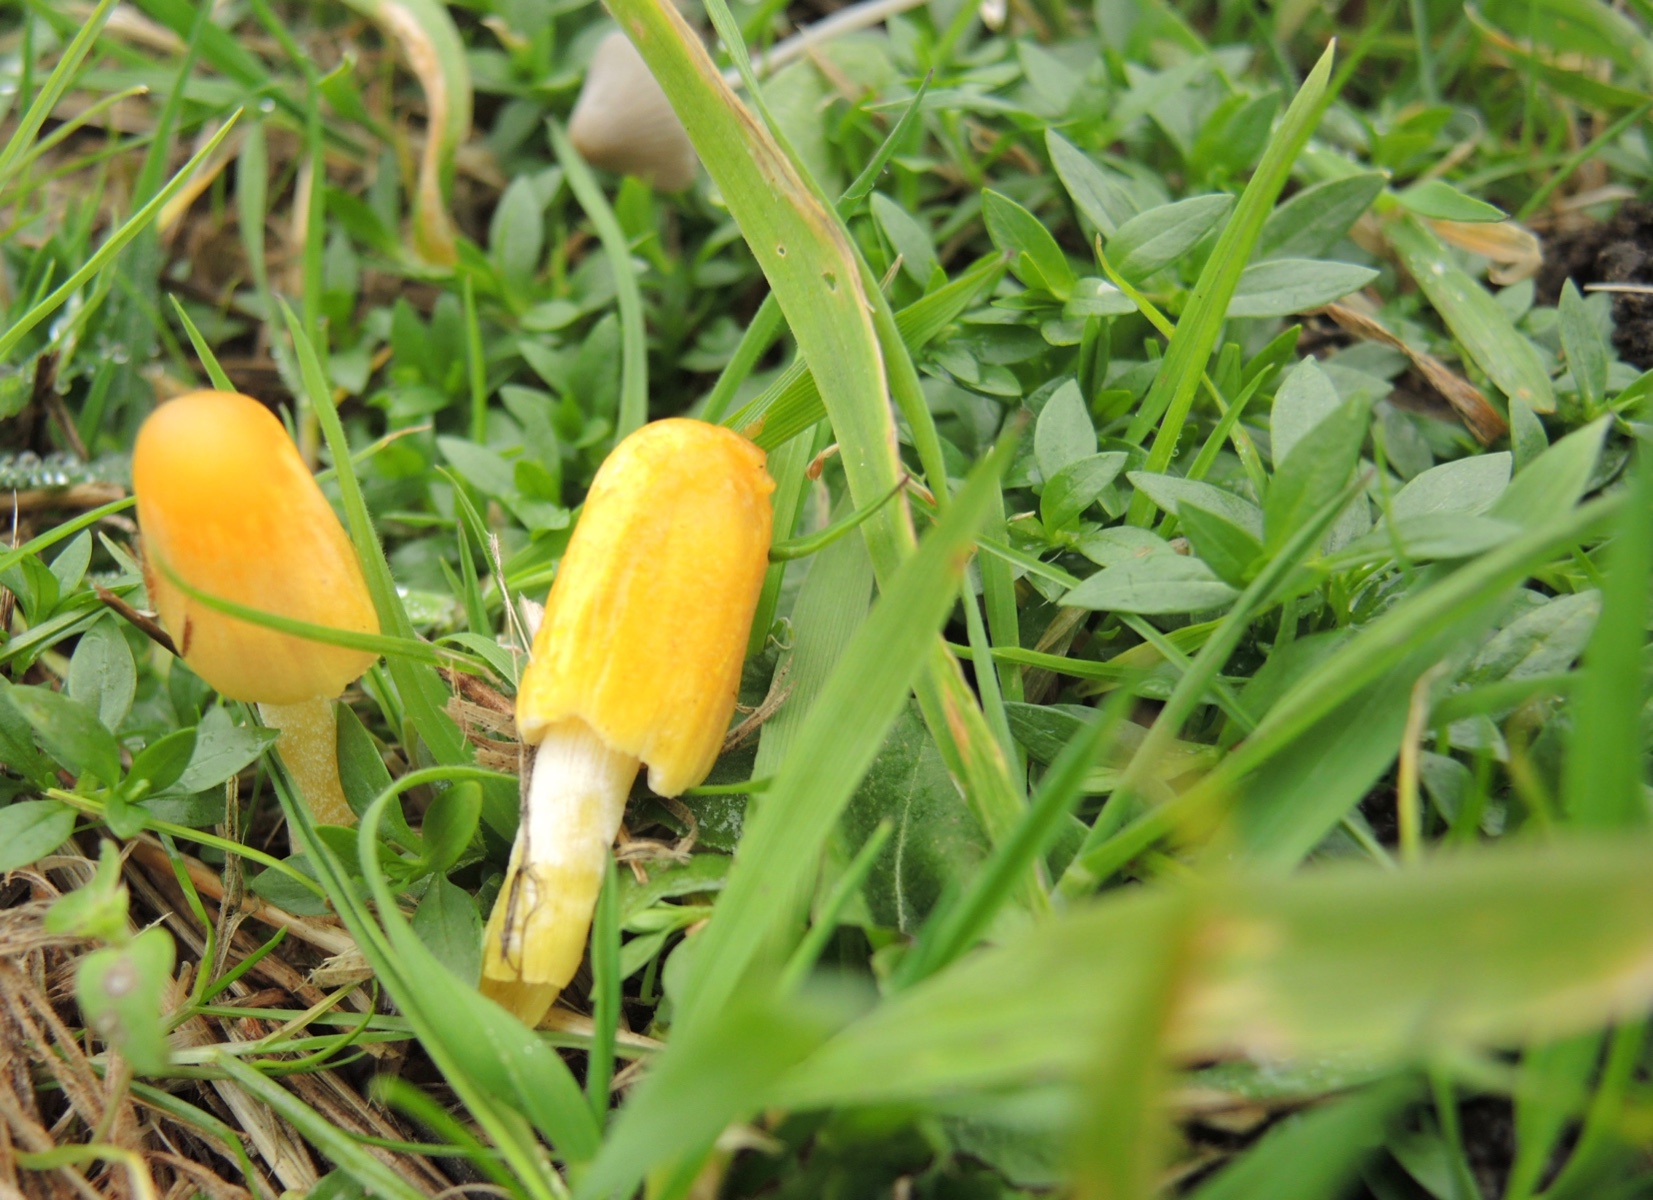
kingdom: Fungi
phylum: Basidiomycota
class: Agaricomycetes
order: Agaricales
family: Bolbitiaceae
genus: Bolbitius
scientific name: Bolbitius titubans
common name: almindelig gulhat
